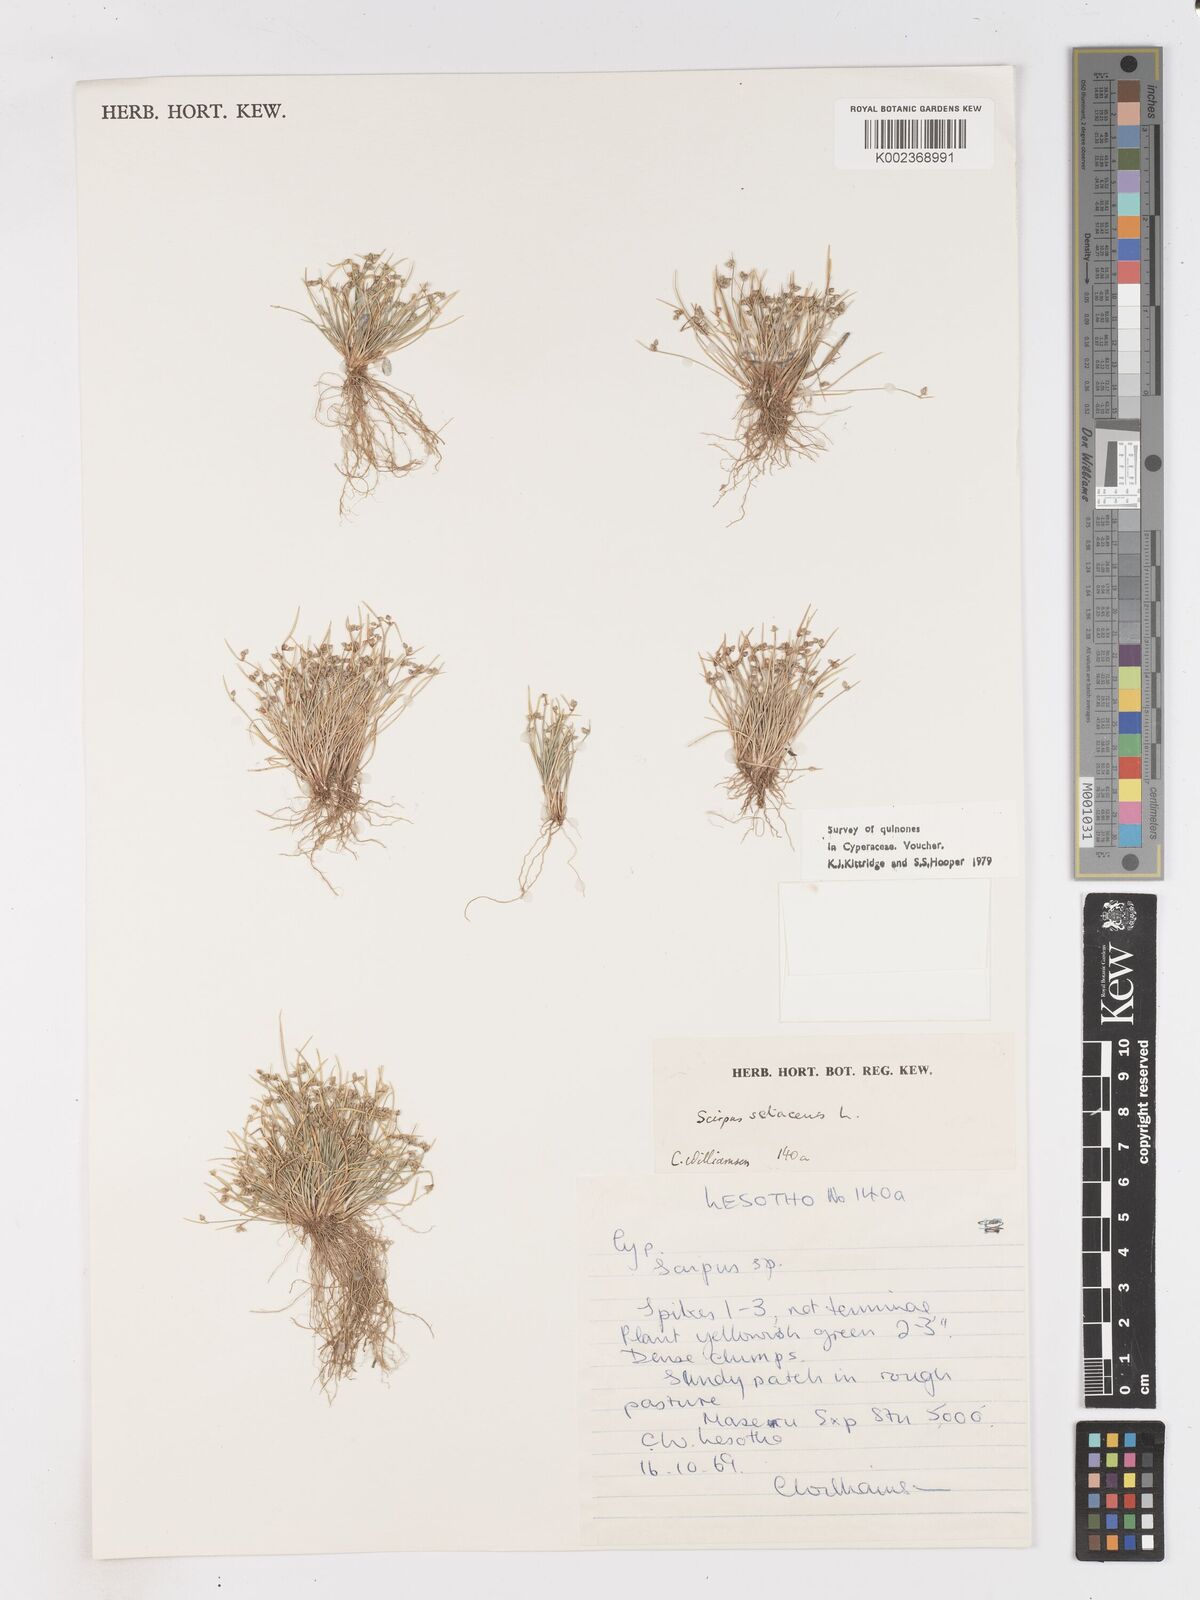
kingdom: Plantae
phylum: Tracheophyta
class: Liliopsida
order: Poales
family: Cyperaceae
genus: Isolepis
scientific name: Isolepis setacea
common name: Bristle club-rush
